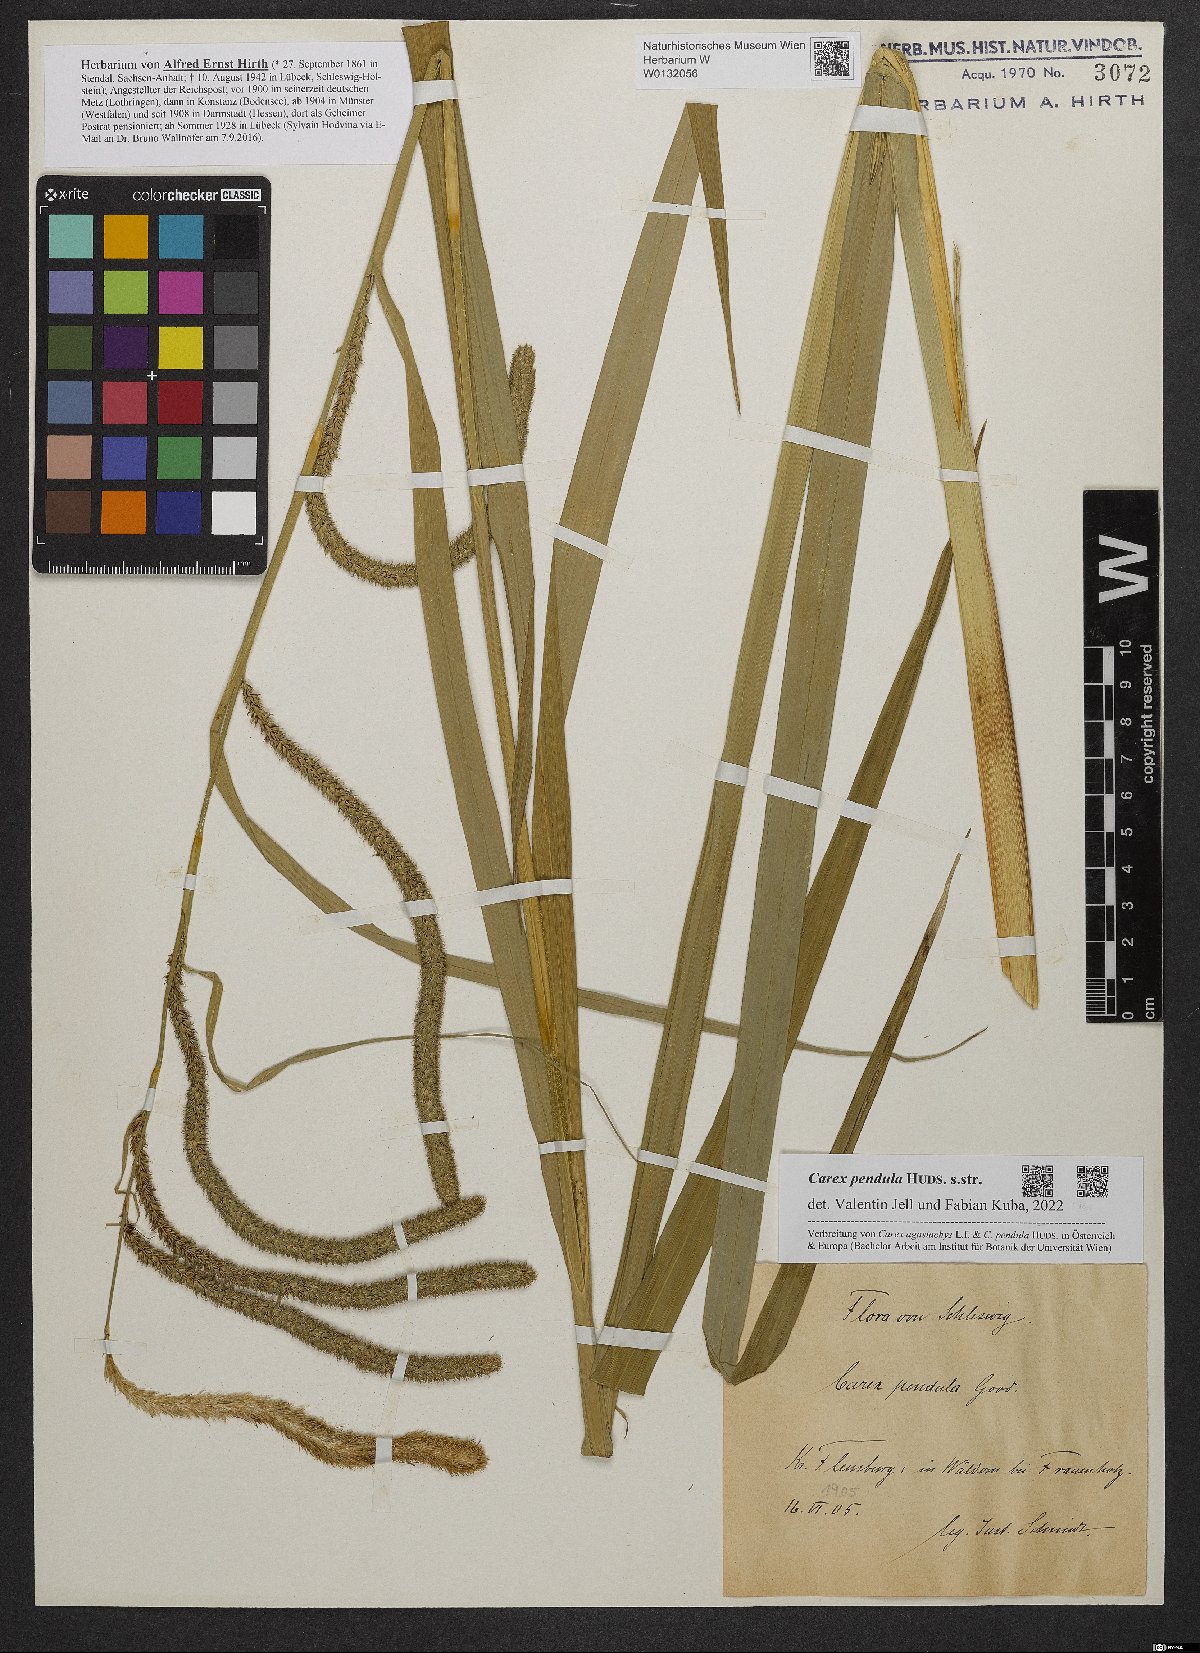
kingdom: Plantae
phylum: Tracheophyta
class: Liliopsida
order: Poales
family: Cyperaceae
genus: Carex
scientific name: Carex pendula
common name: Pendulous sedge
